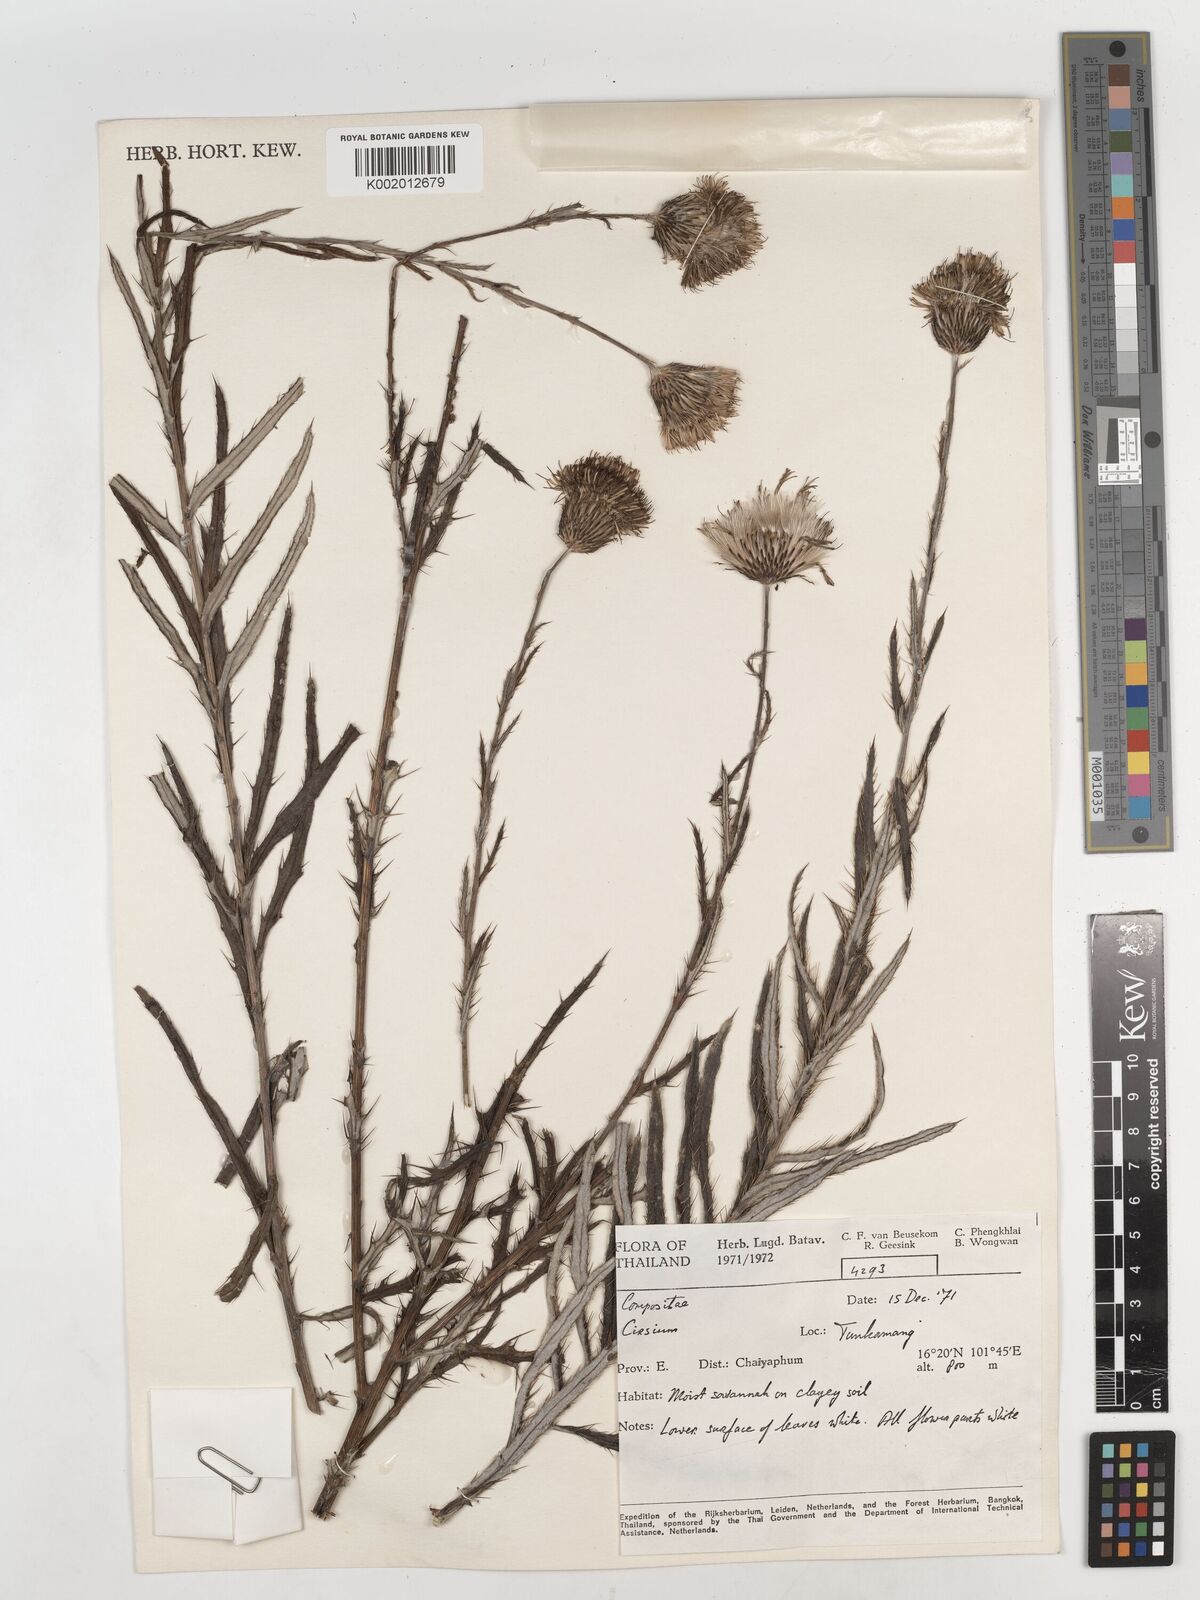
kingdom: Plantae
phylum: Tracheophyta
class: Magnoliopsida
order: Asterales
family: Asteraceae
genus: Cirsium
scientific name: Cirsium lineare
